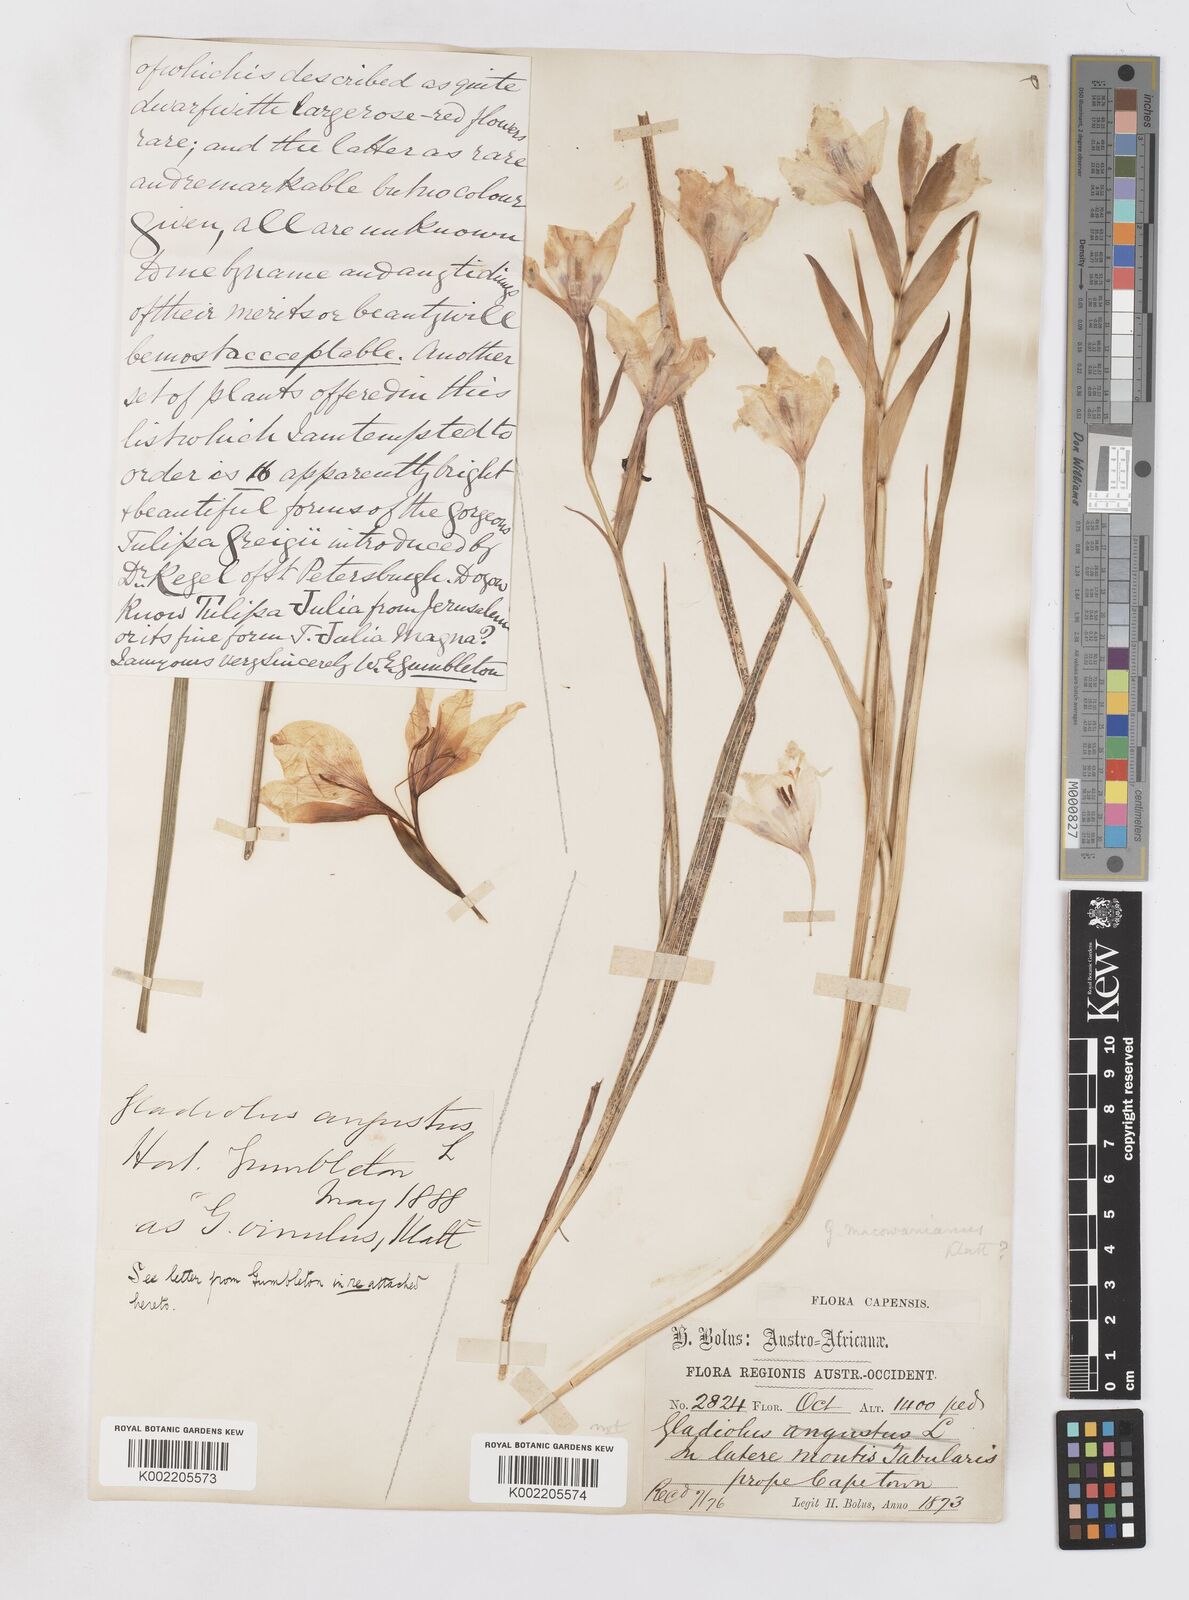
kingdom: Plantae
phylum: Tracheophyta
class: Liliopsida
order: Asparagales
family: Iridaceae
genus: Gladiolus
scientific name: Gladiolus carneus
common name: Painted-lady
